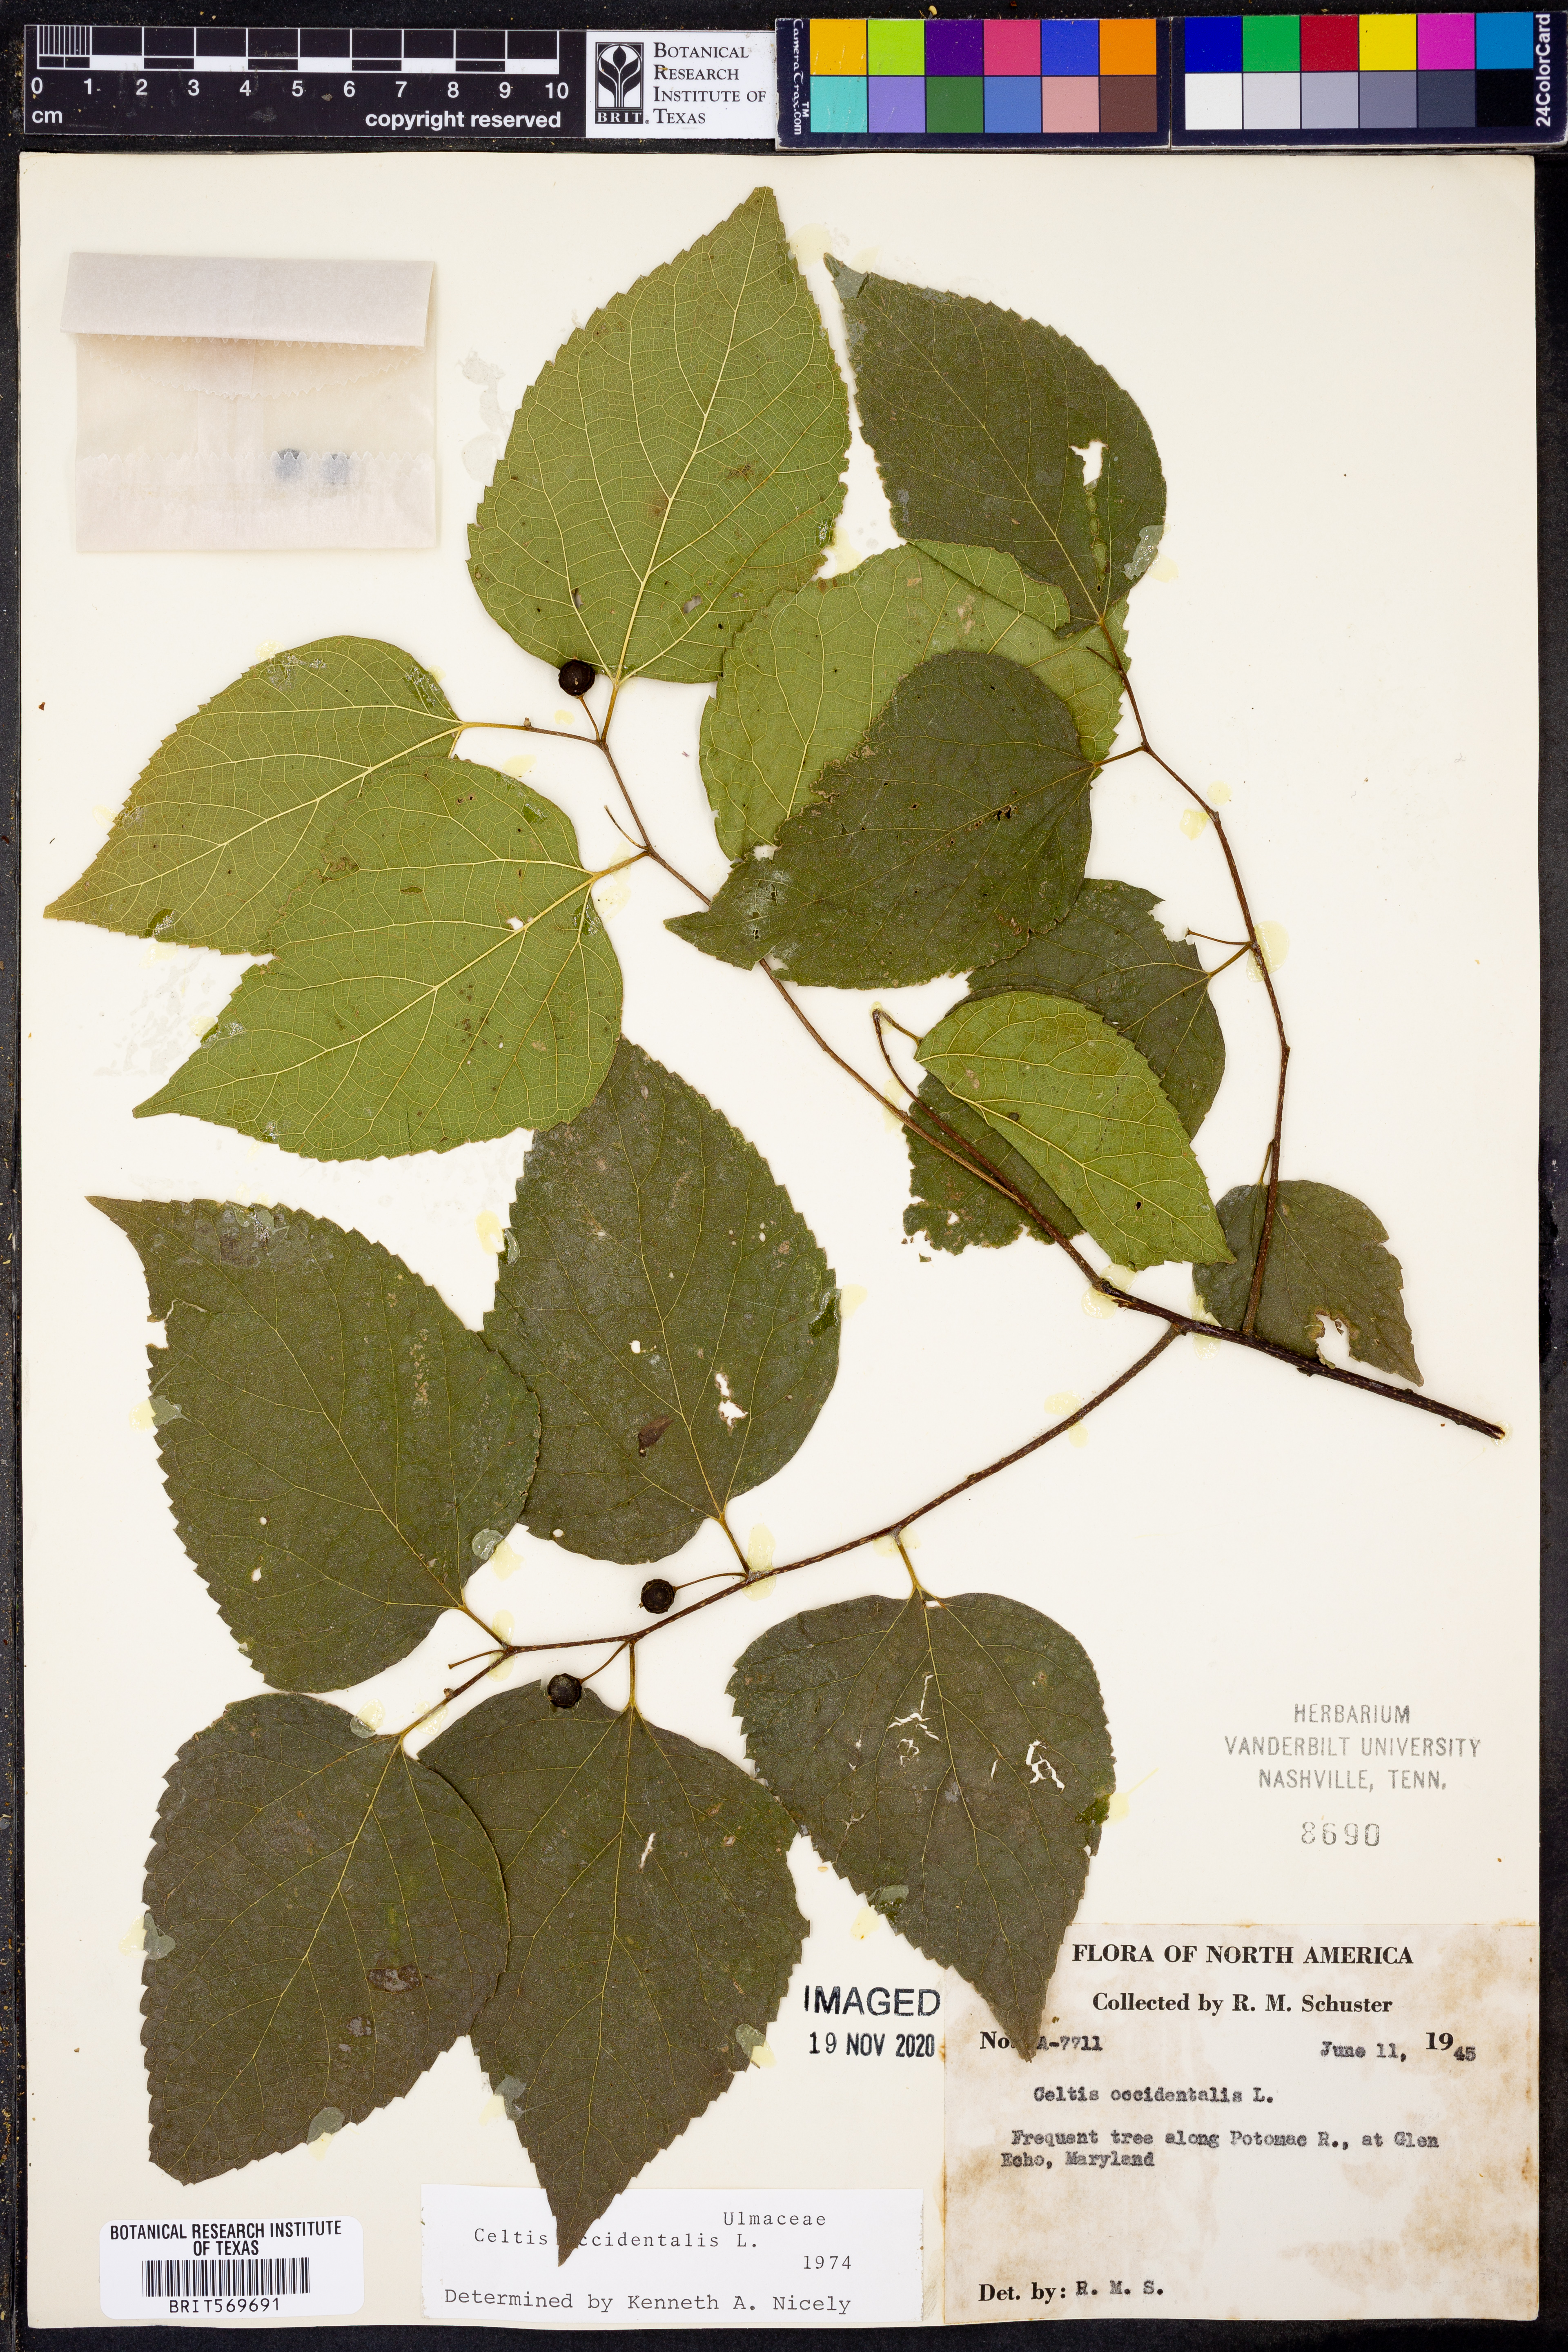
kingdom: Plantae
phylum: Tracheophyta
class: Magnoliopsida
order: Rosales
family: Cannabaceae
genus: Celtis
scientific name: Celtis occidentalis
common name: Common hackberry
